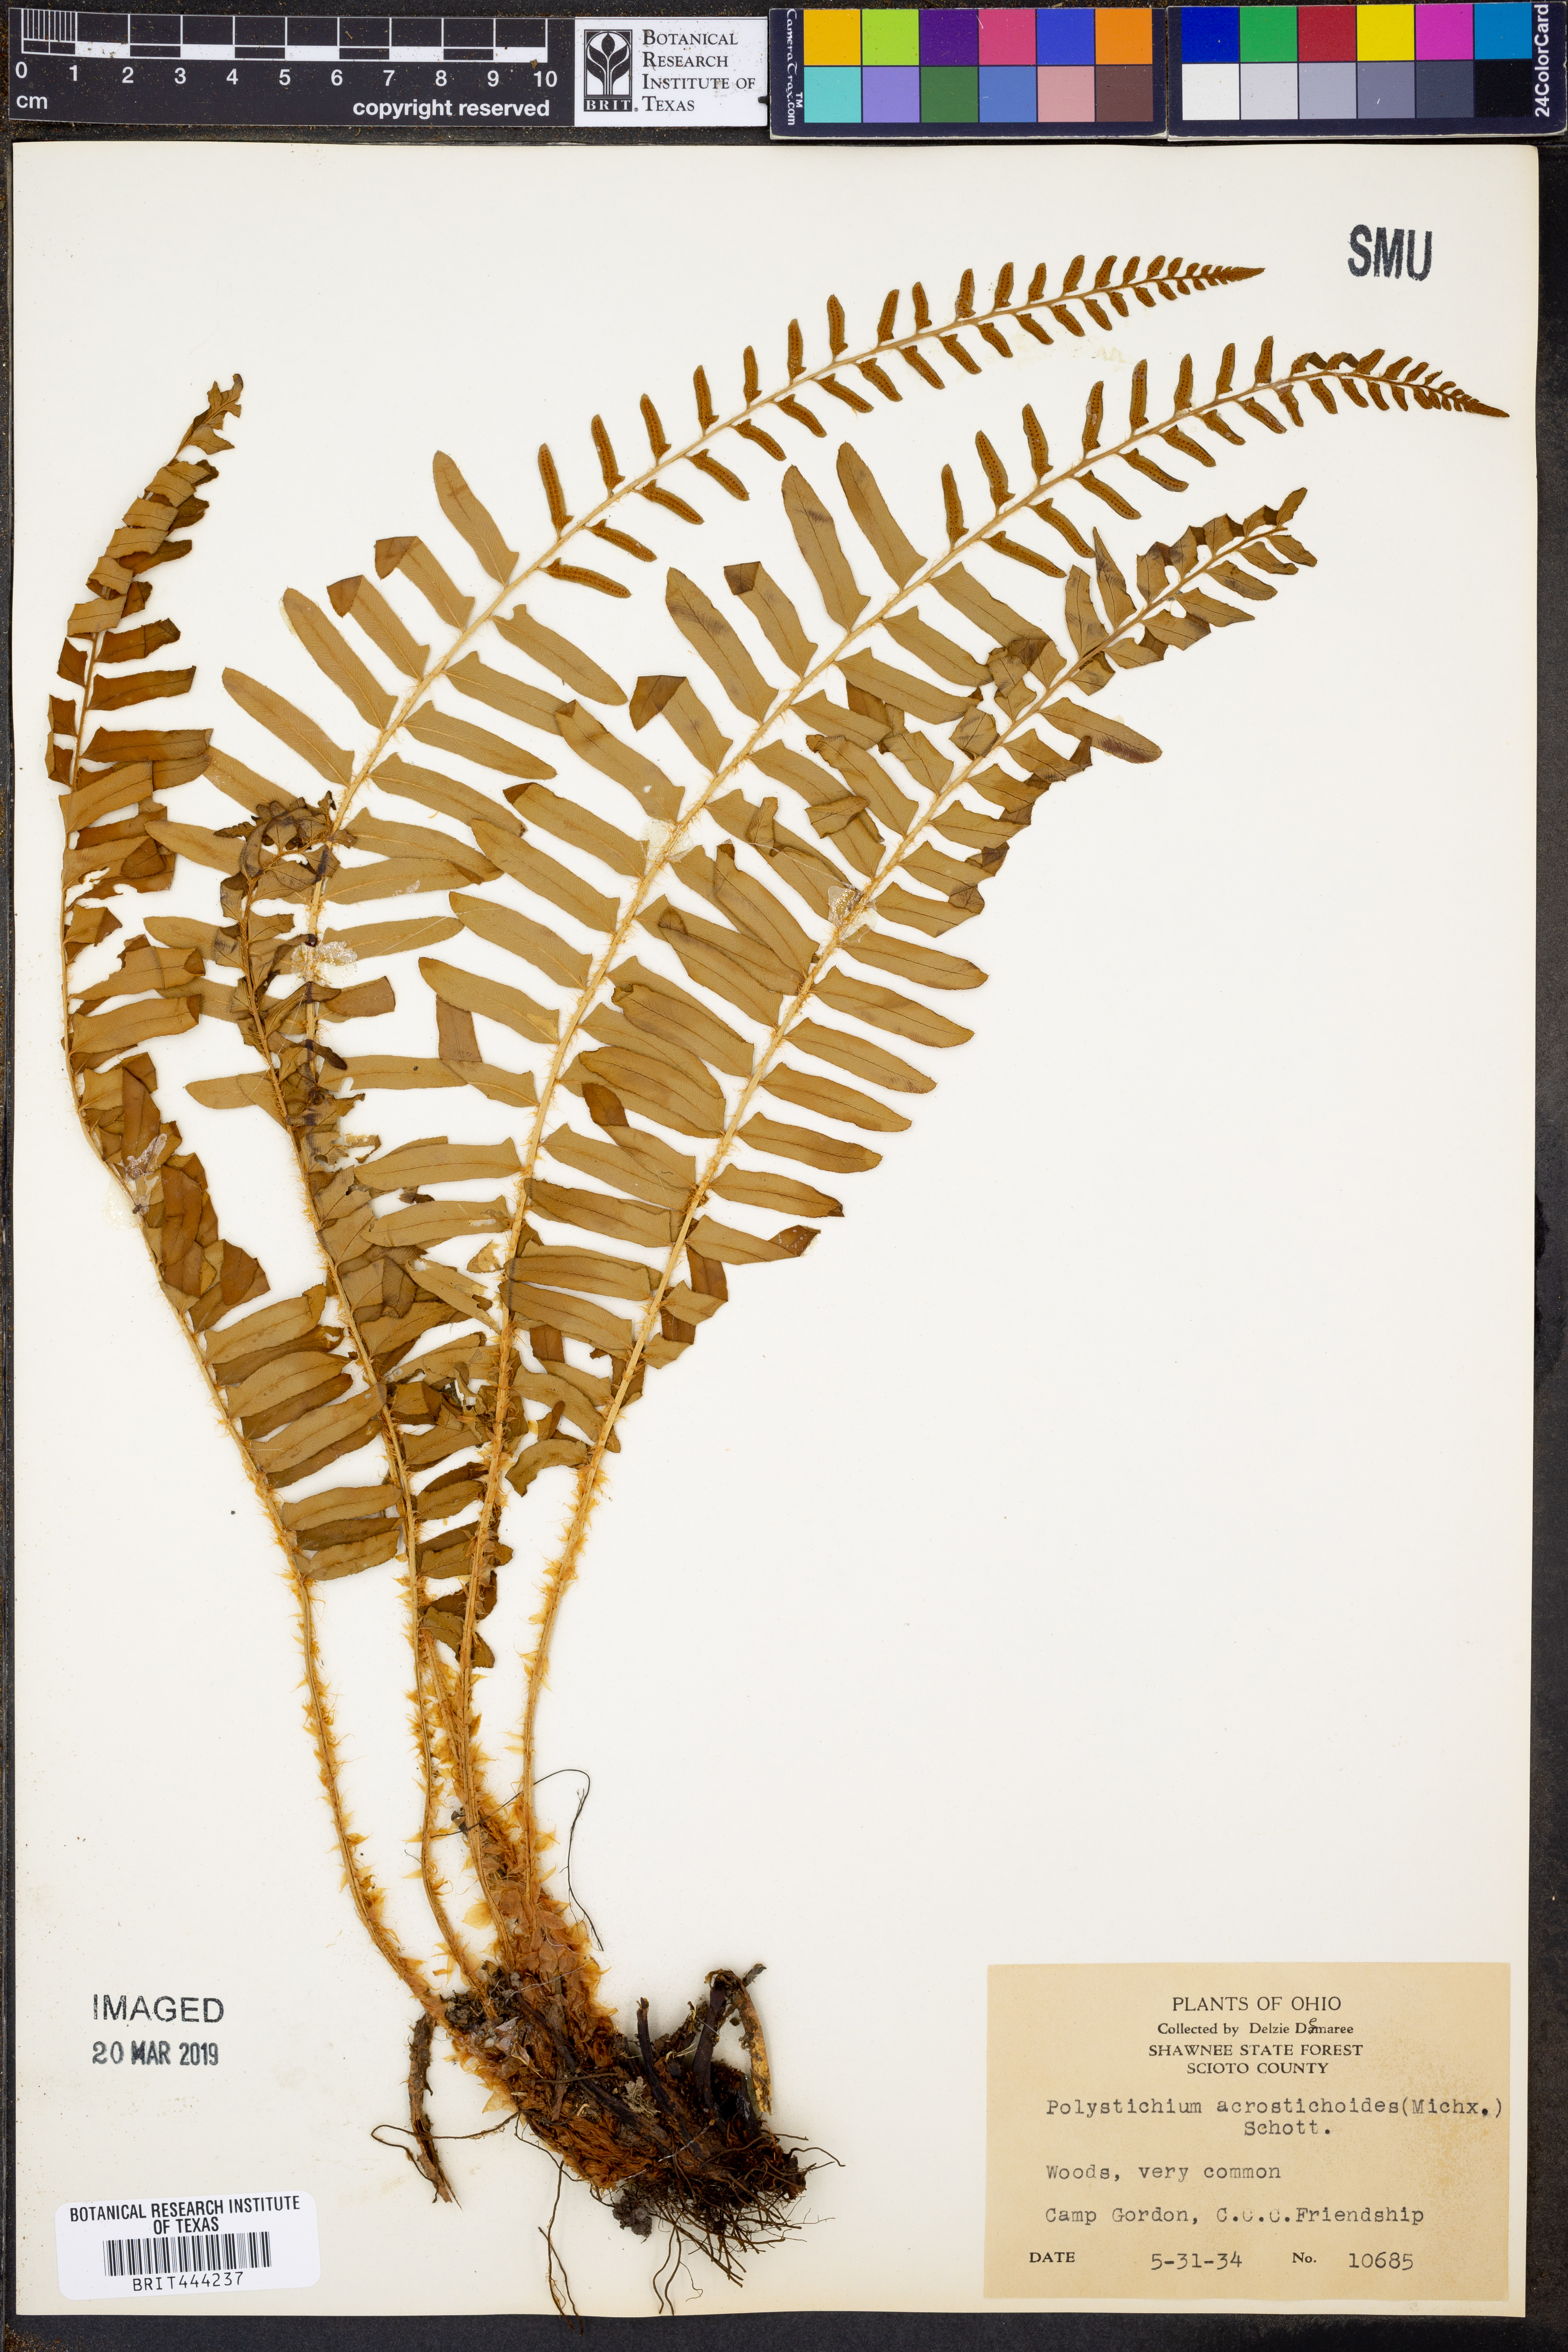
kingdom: Plantae
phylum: Tracheophyta
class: Polypodiopsida
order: Polypodiales
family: Dryopteridaceae
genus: Polystichum
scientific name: Polystichum acrostichoides
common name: Christmas fern
